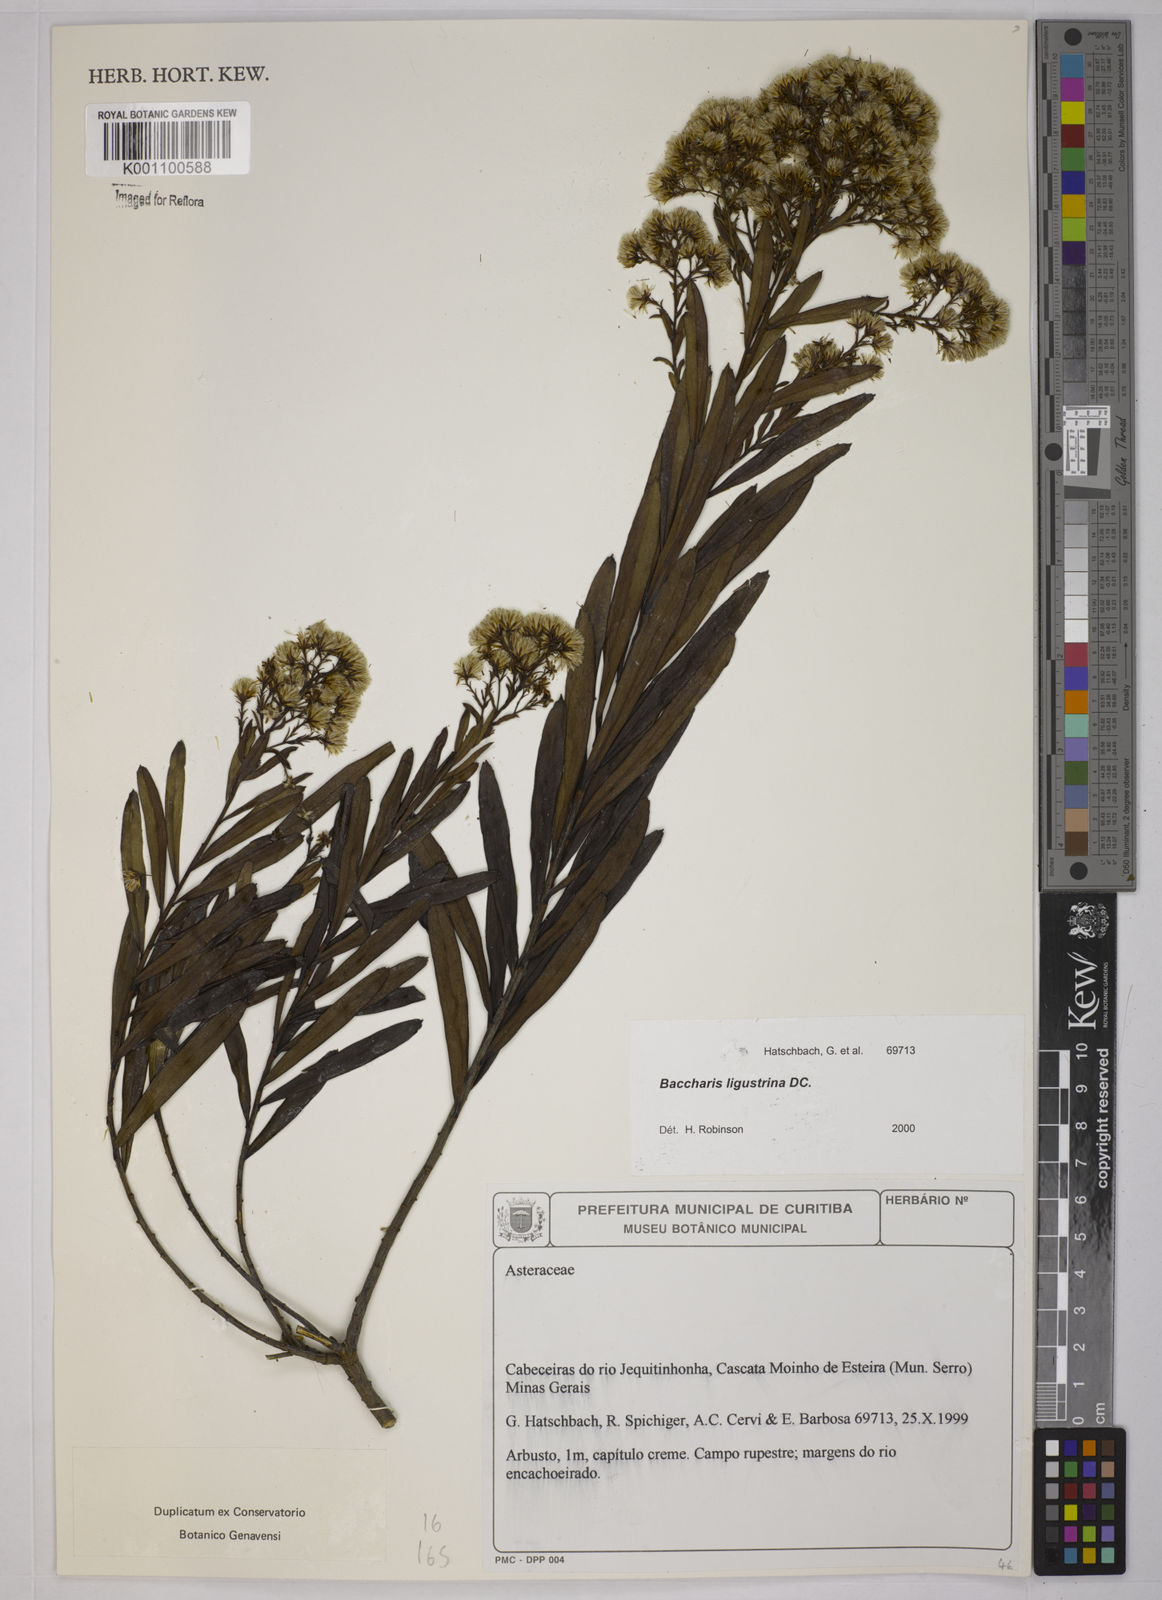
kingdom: Plantae
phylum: Tracheophyta
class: Magnoliopsida
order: Asterales
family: Asteraceae
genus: Baccharis
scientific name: Baccharis ligustrina
